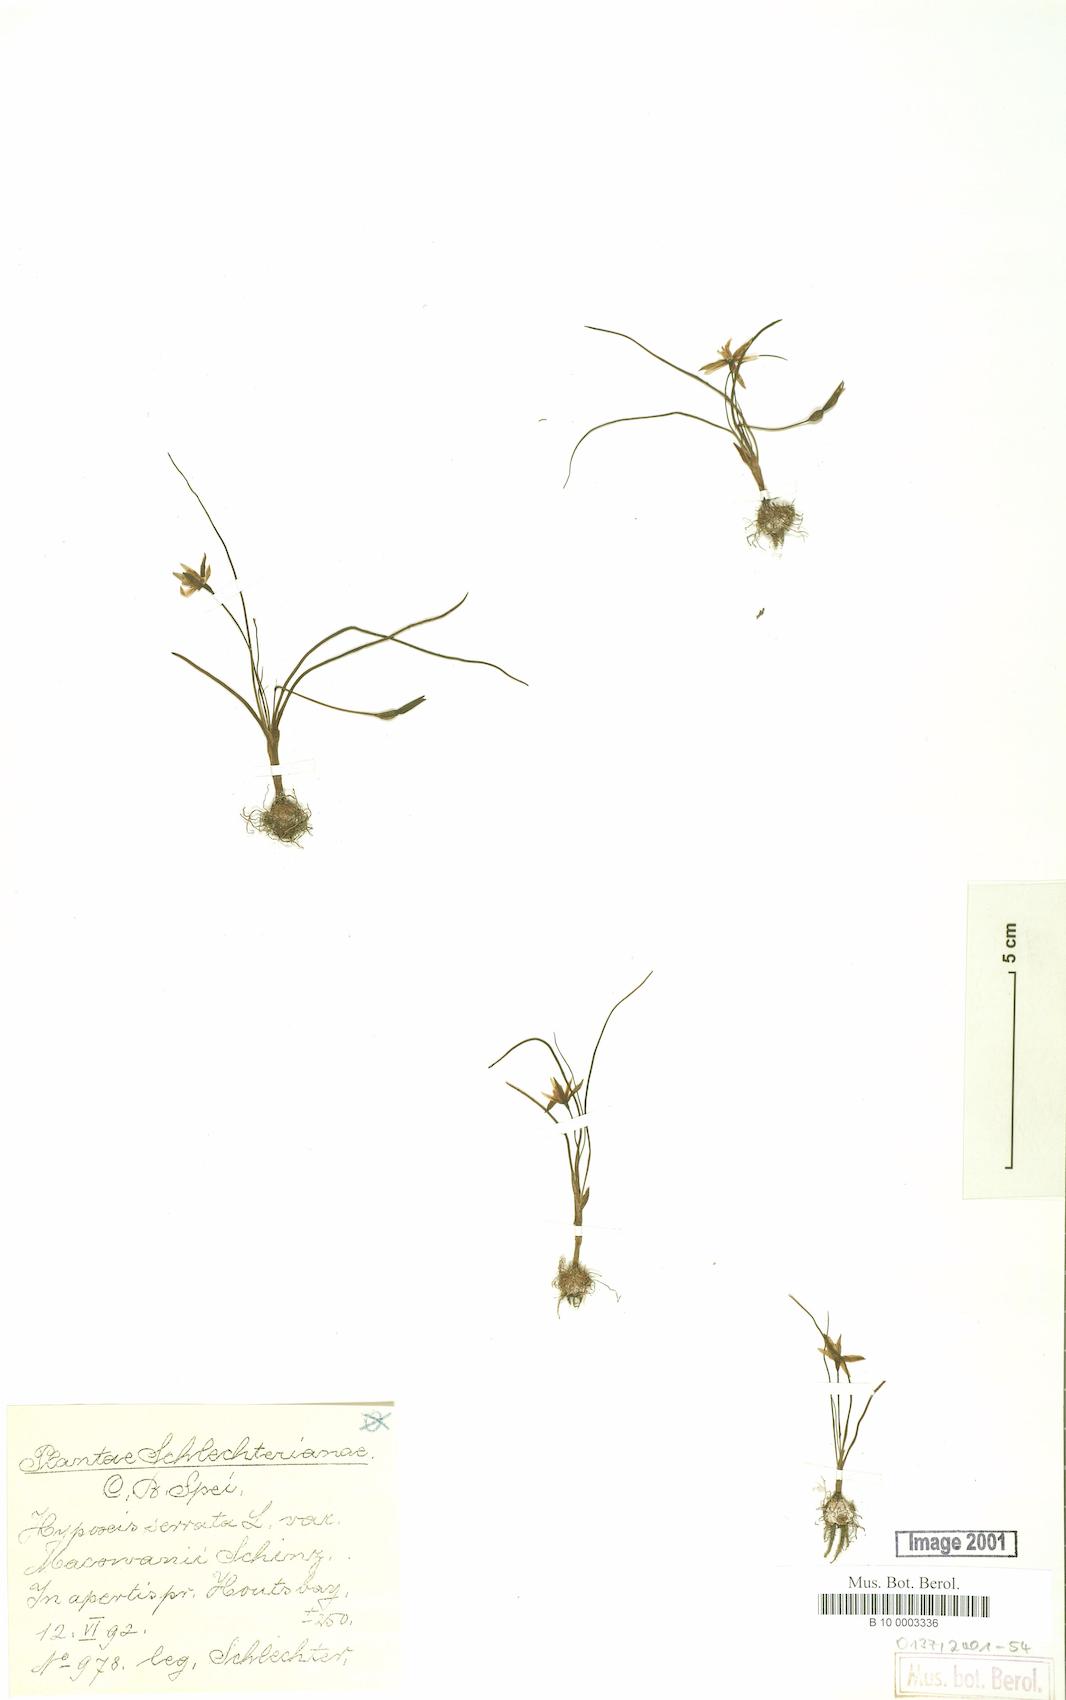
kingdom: Plantae
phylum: Tracheophyta
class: Liliopsida
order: Asparagales
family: Hypoxidaceae
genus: Pauridia
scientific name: Pauridia serrata
